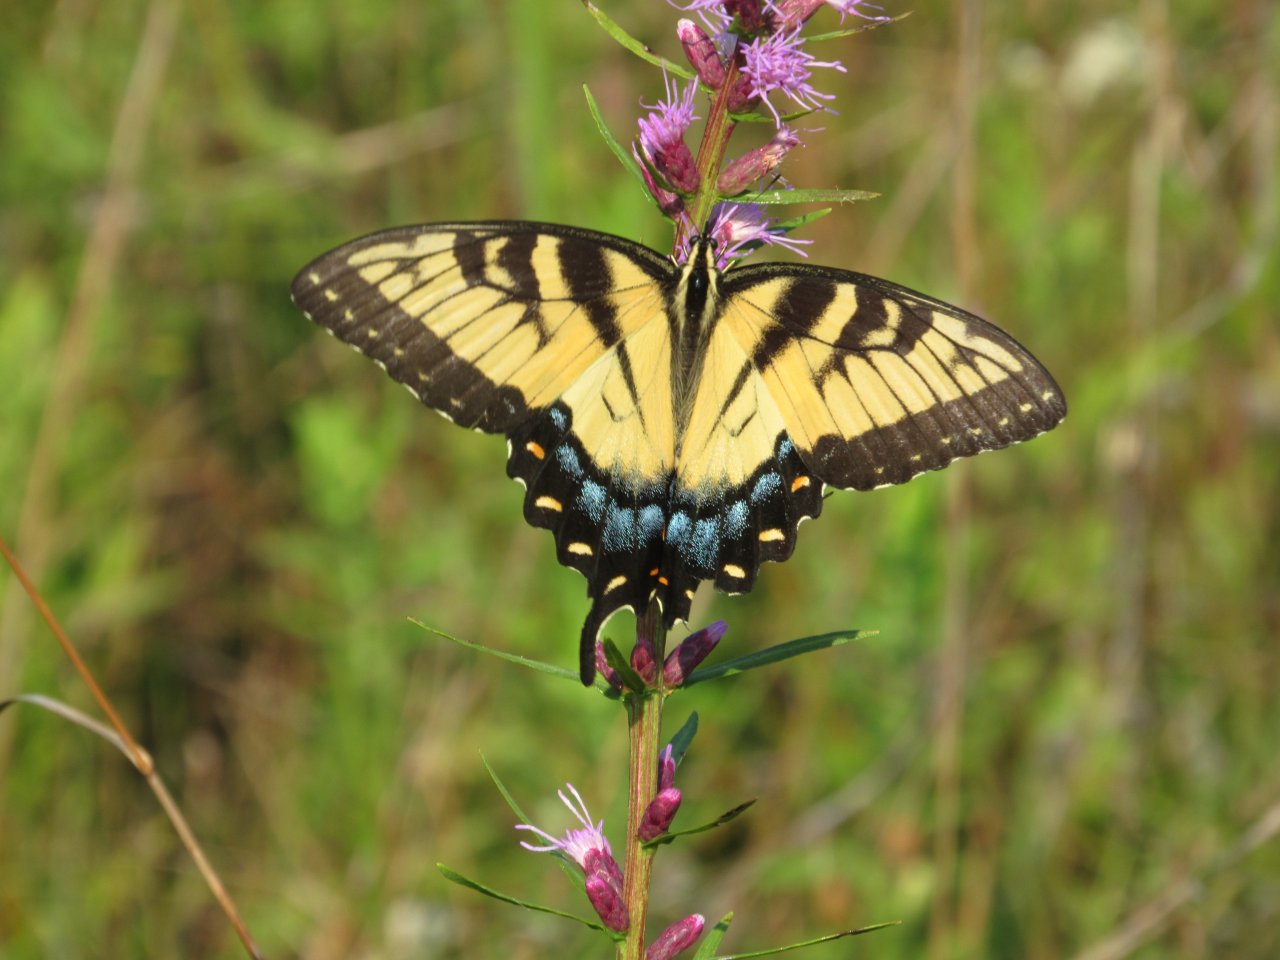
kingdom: Animalia
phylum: Arthropoda
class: Insecta
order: Lepidoptera
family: Papilionidae
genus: Pterourus
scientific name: Pterourus glaucus
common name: Eastern Tiger Swallowtail
